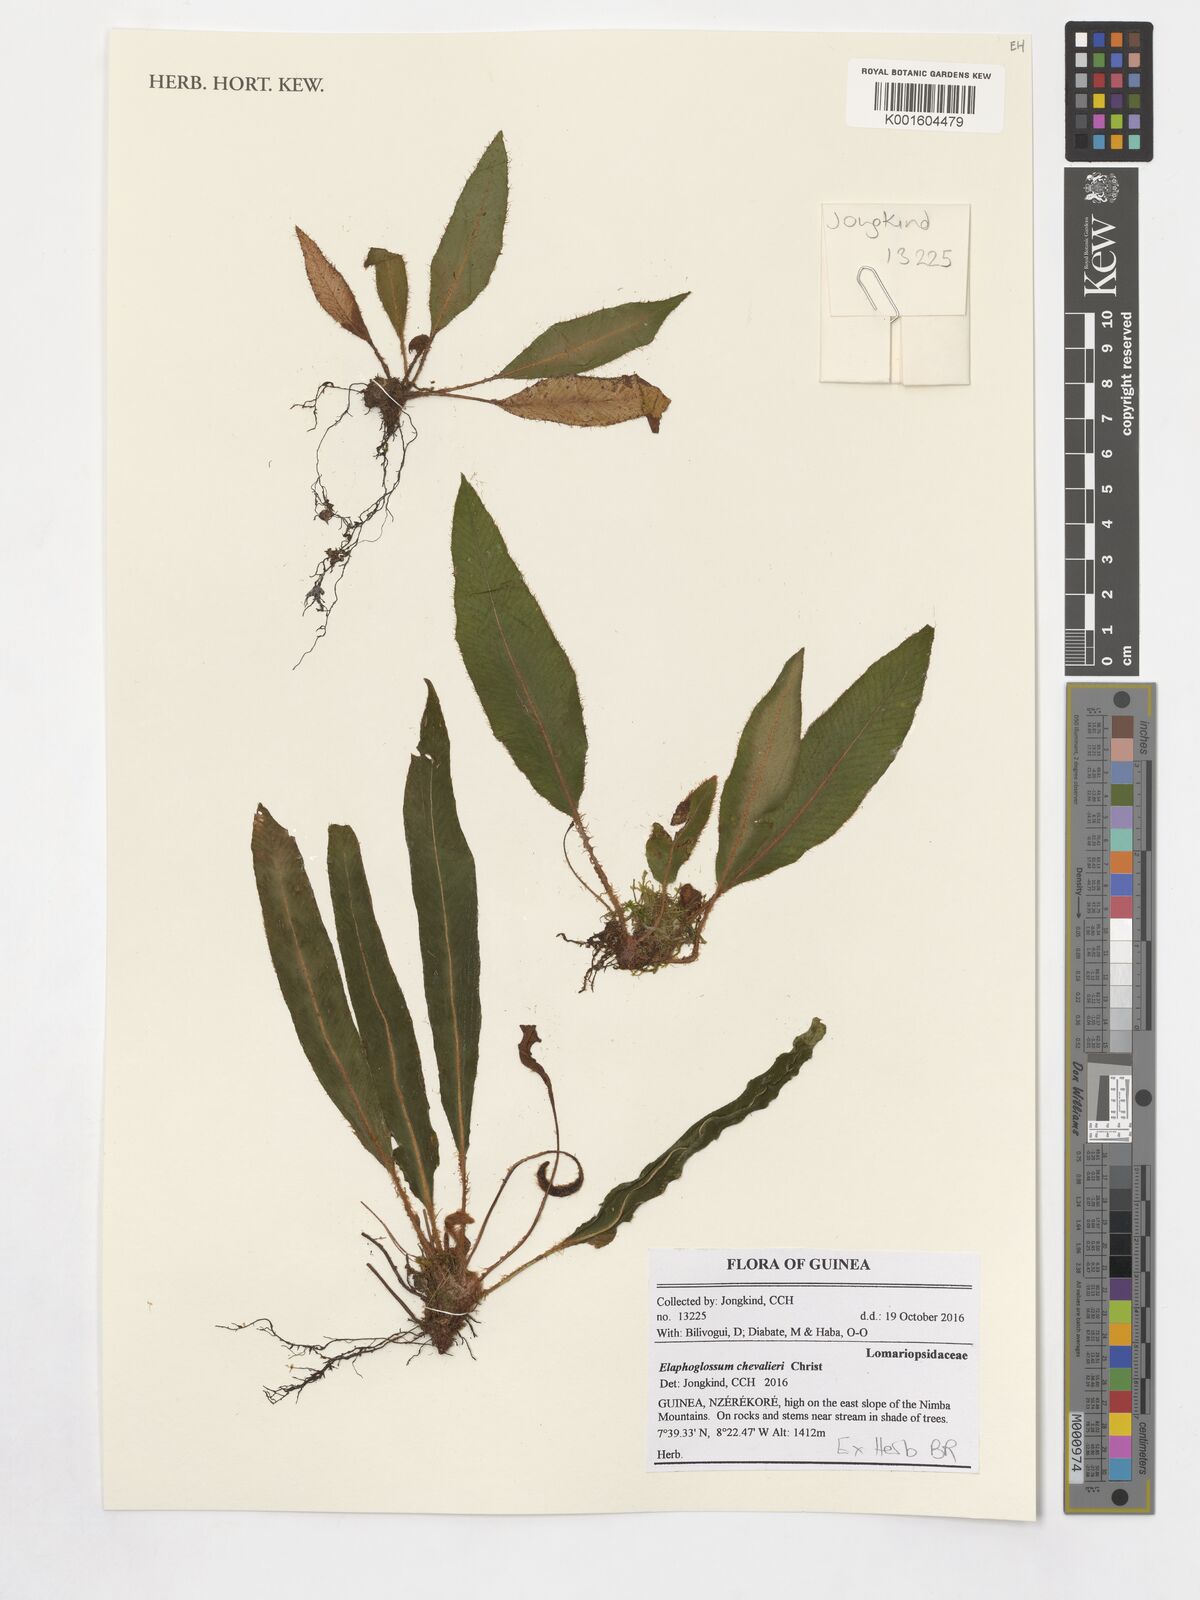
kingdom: Plantae
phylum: Tracheophyta
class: Polypodiopsida
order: Polypodiales
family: Dryopteridaceae
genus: Elaphoglossum
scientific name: Elaphoglossum chevalieri
